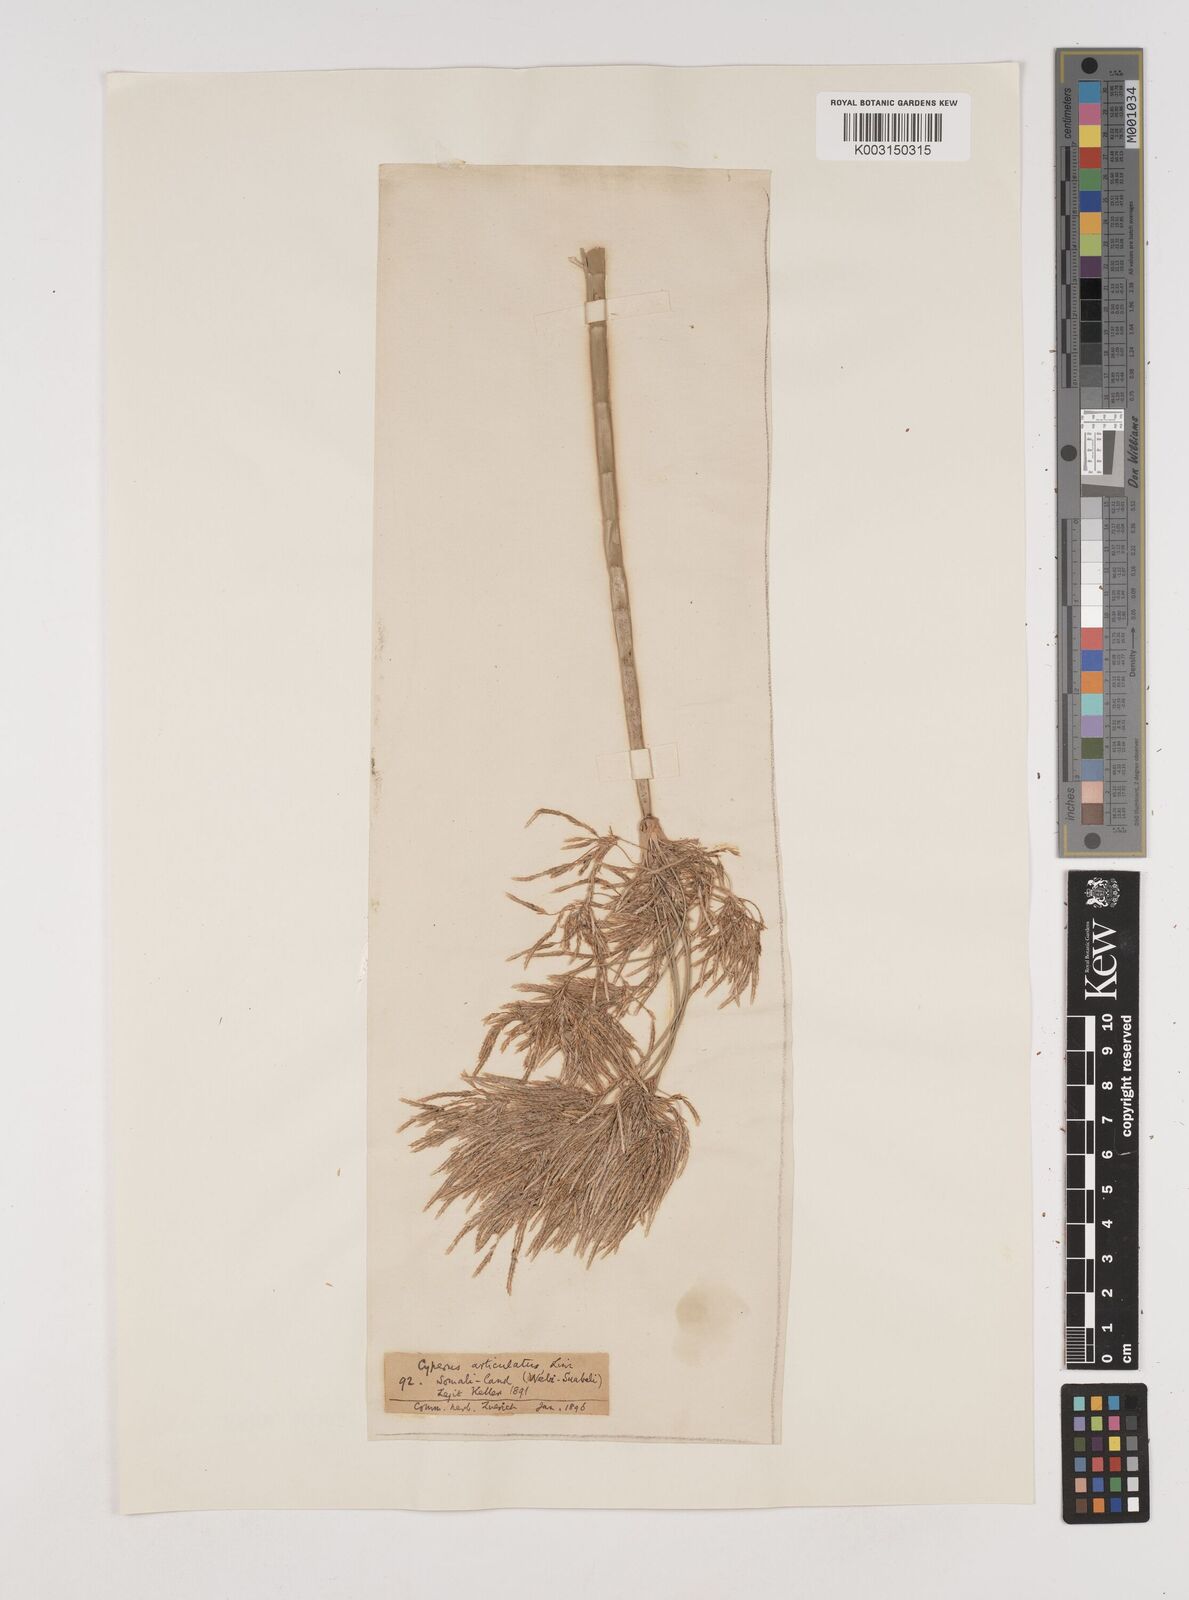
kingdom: Plantae
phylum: Tracheophyta
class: Liliopsida
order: Poales
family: Cyperaceae
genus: Cyperus
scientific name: Cyperus articulatus
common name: Jointed flatsedge
